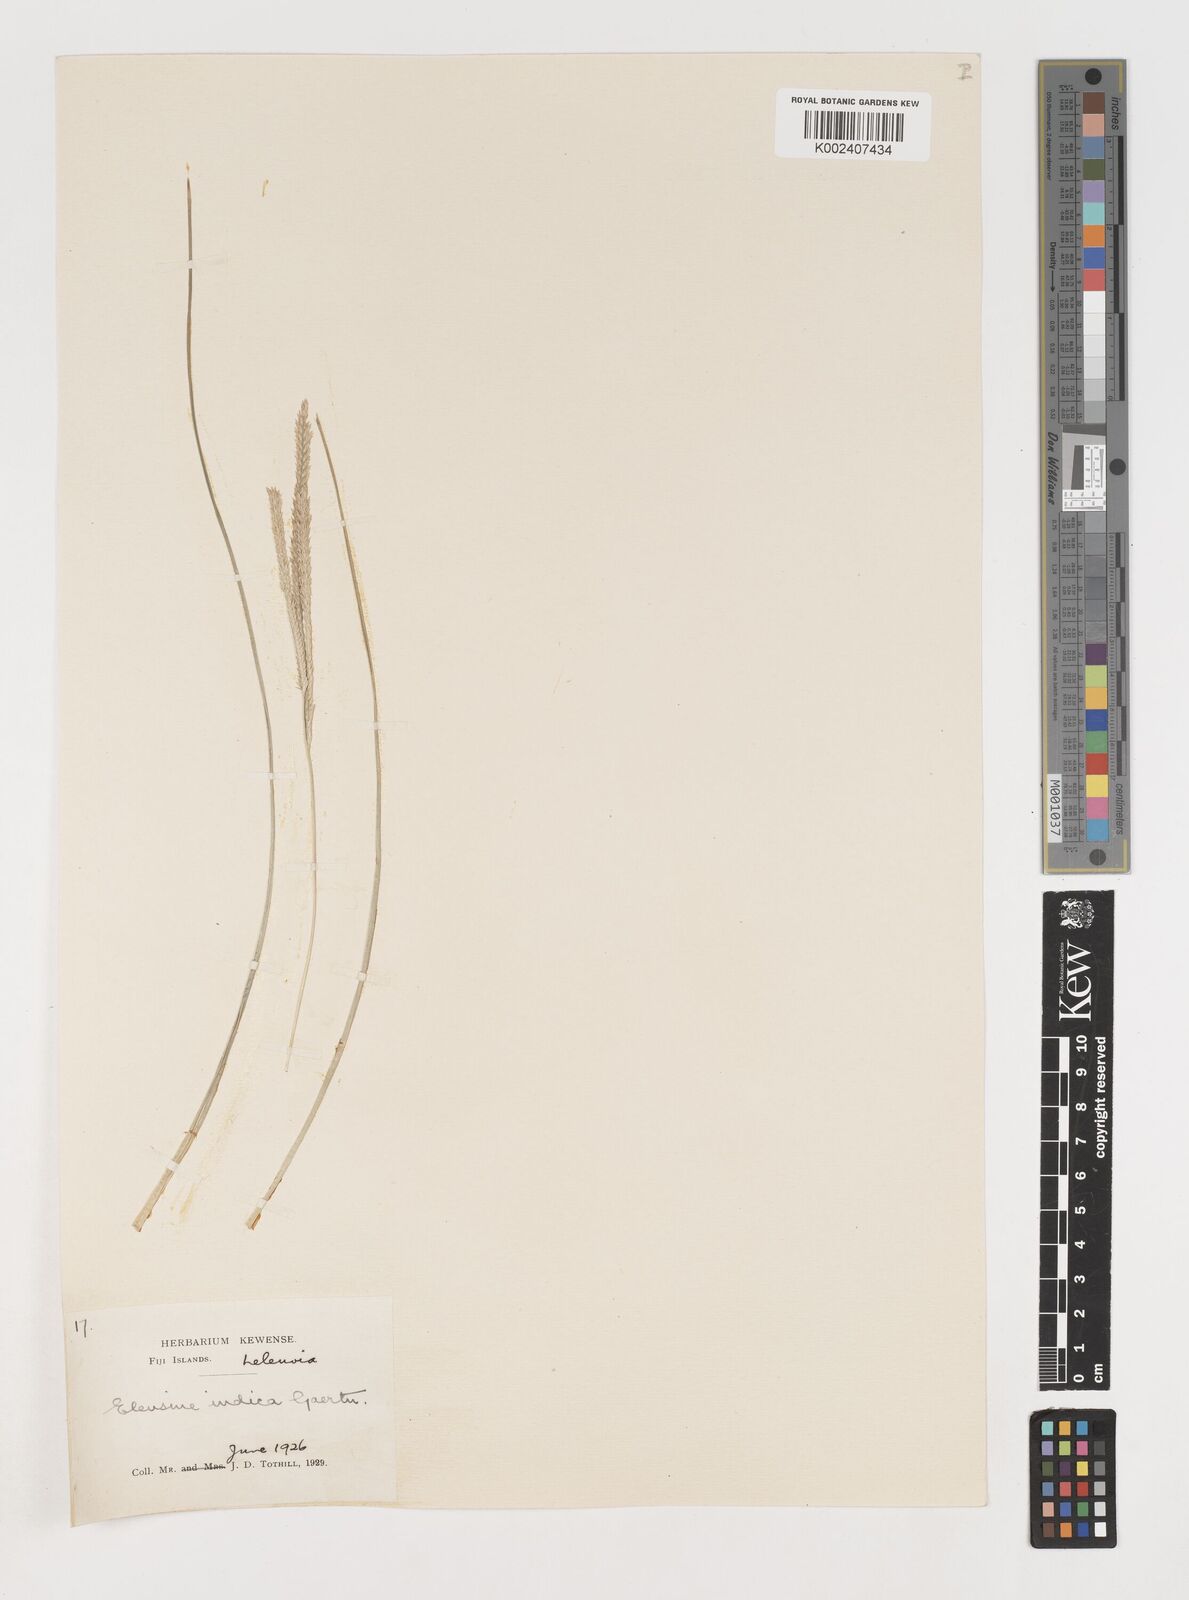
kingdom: Plantae
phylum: Tracheophyta
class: Liliopsida
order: Poales
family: Poaceae
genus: Eleusine
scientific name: Eleusine indica
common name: Yard-grass
